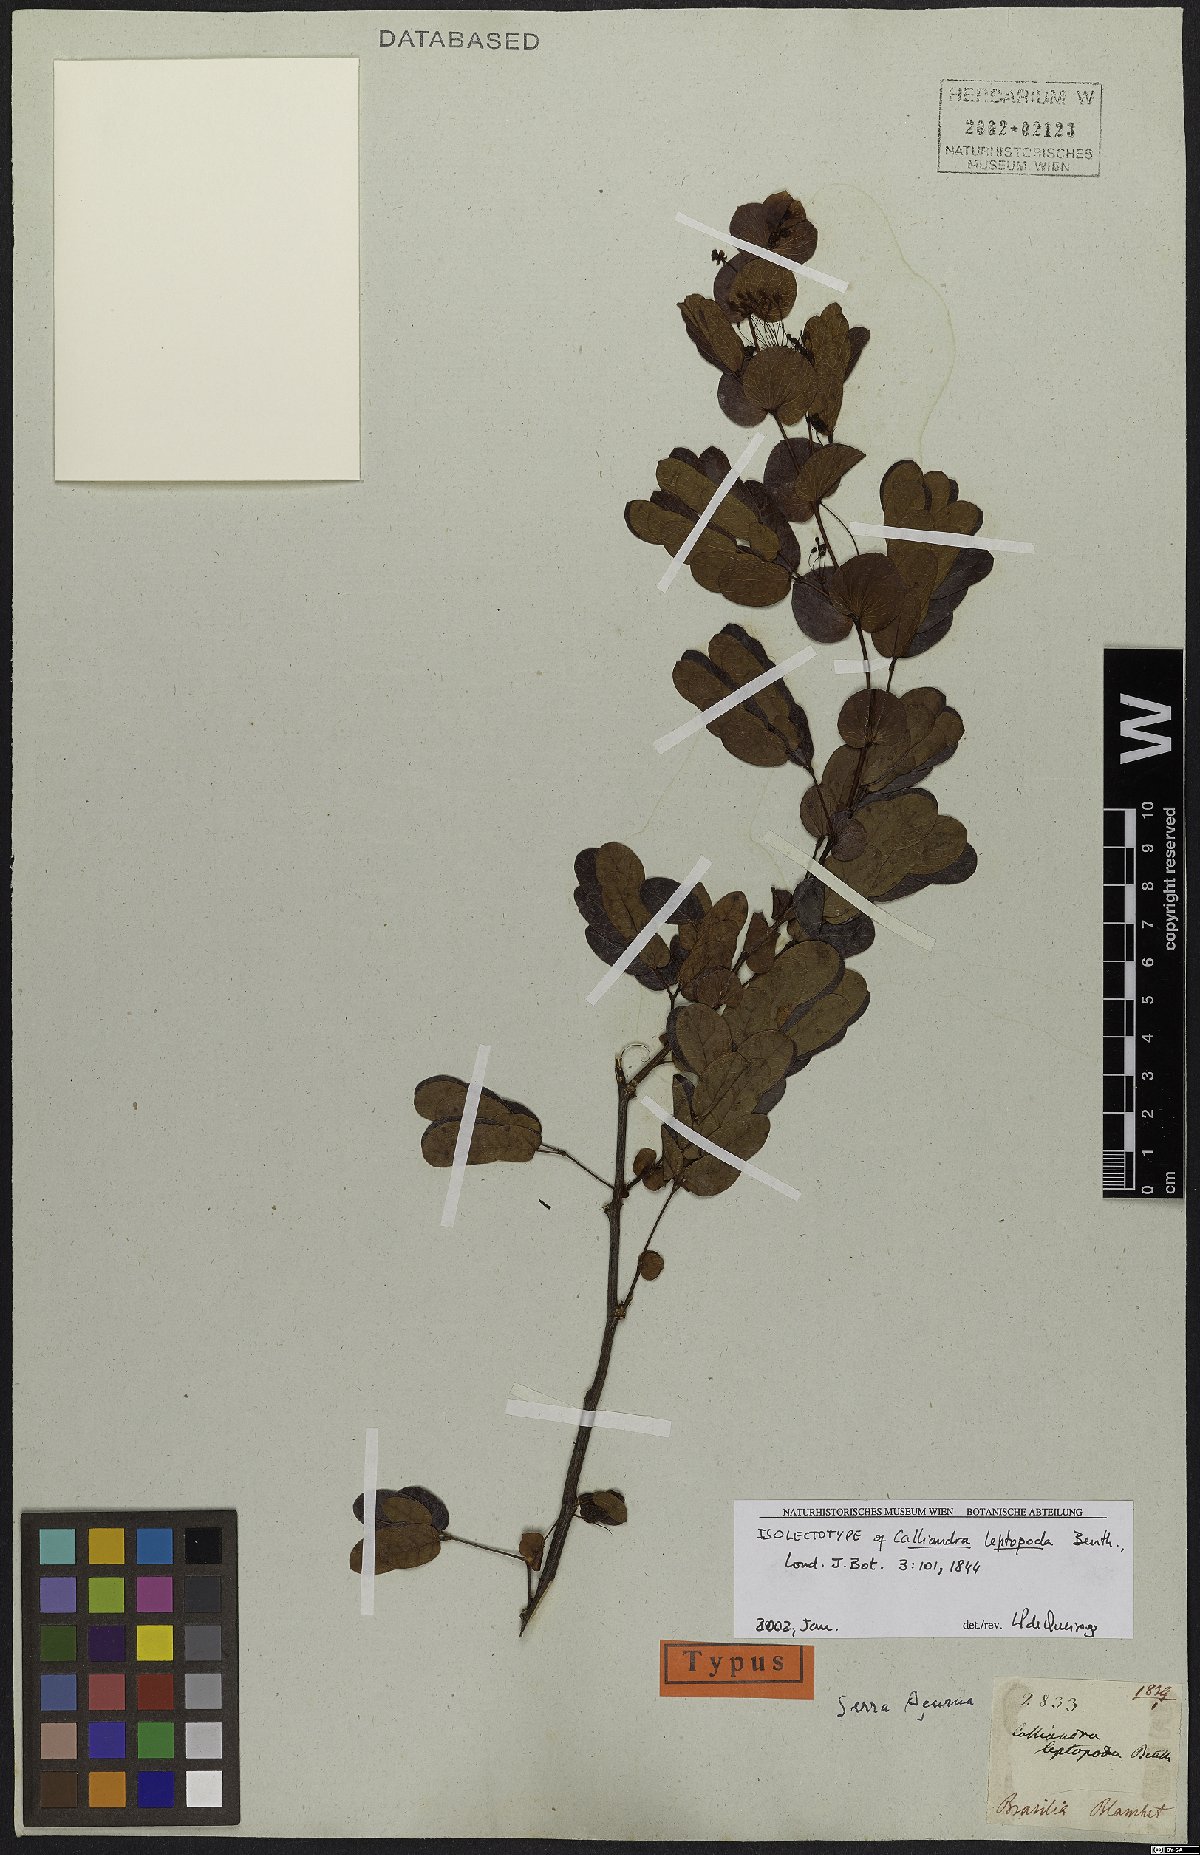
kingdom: Plantae
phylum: Tracheophyta
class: Magnoliopsida
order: Fabales
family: Fabaceae
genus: Calliandra
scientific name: Calliandra leptopoda
